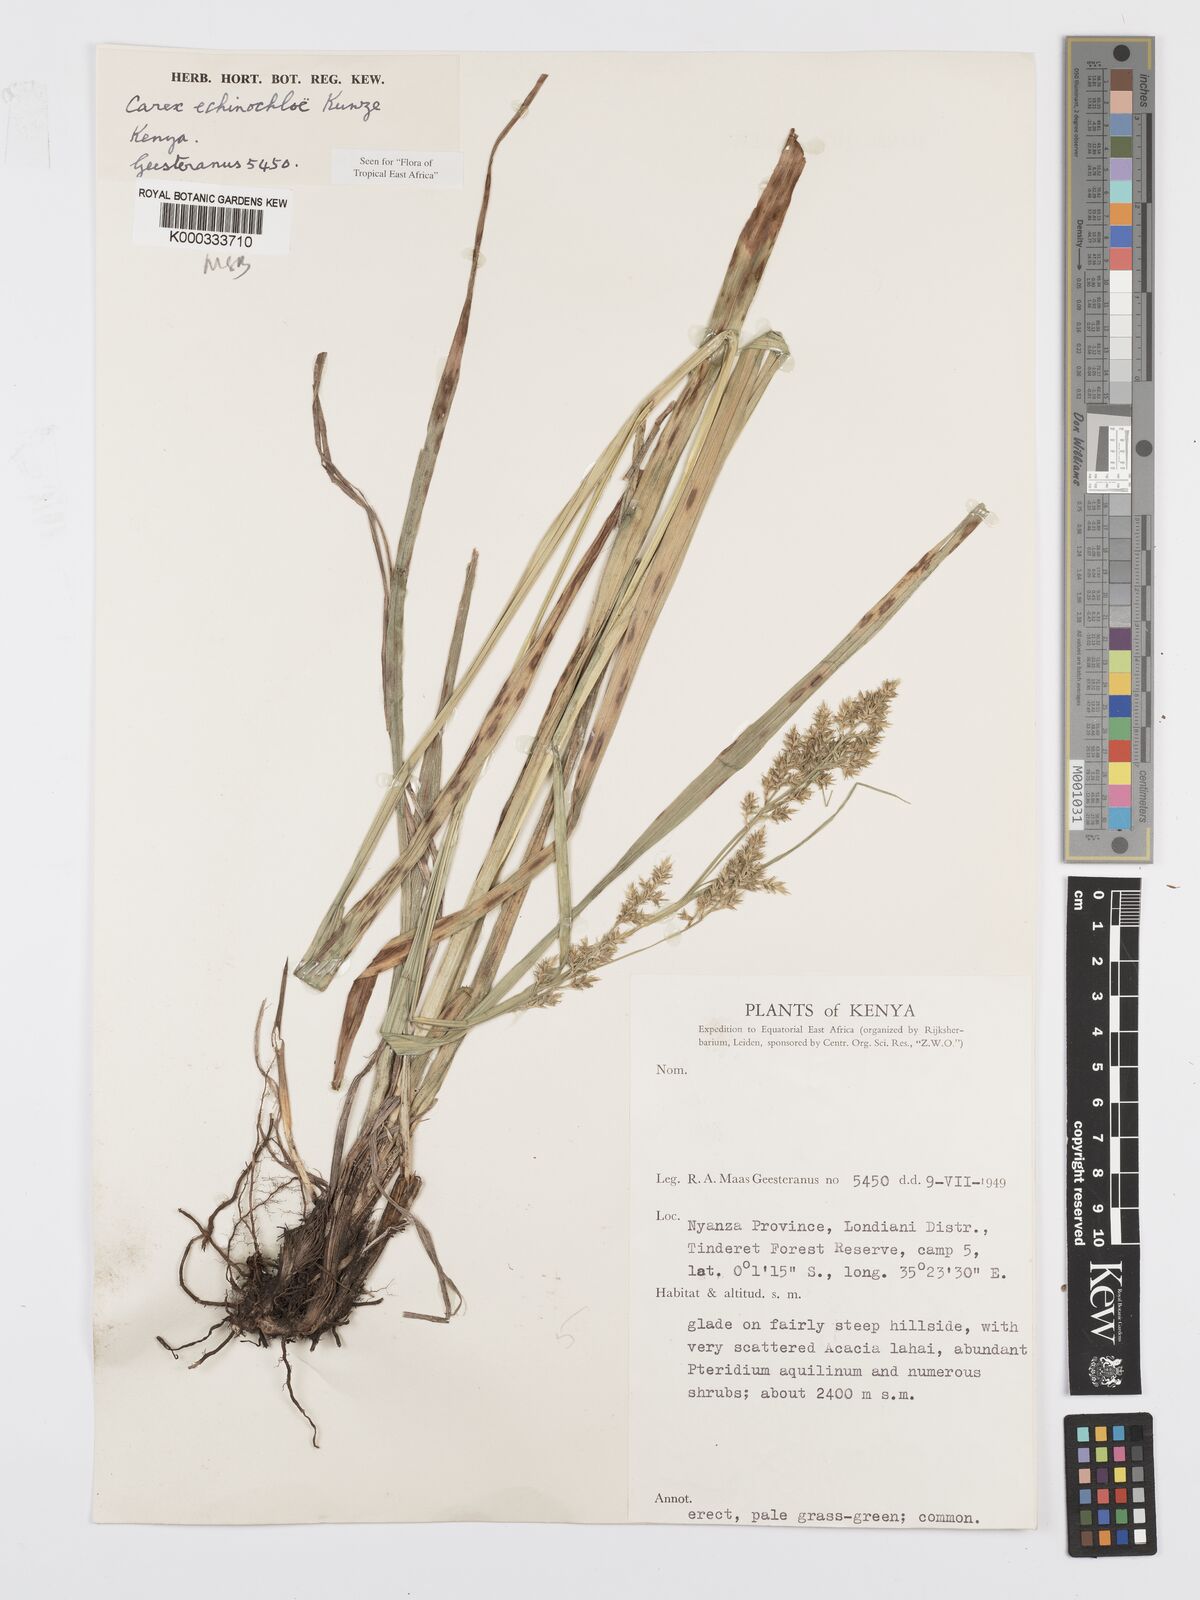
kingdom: Plantae
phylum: Tracheophyta
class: Liliopsida
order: Poales
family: Cyperaceae
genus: Carex
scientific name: Carex echinochloe
